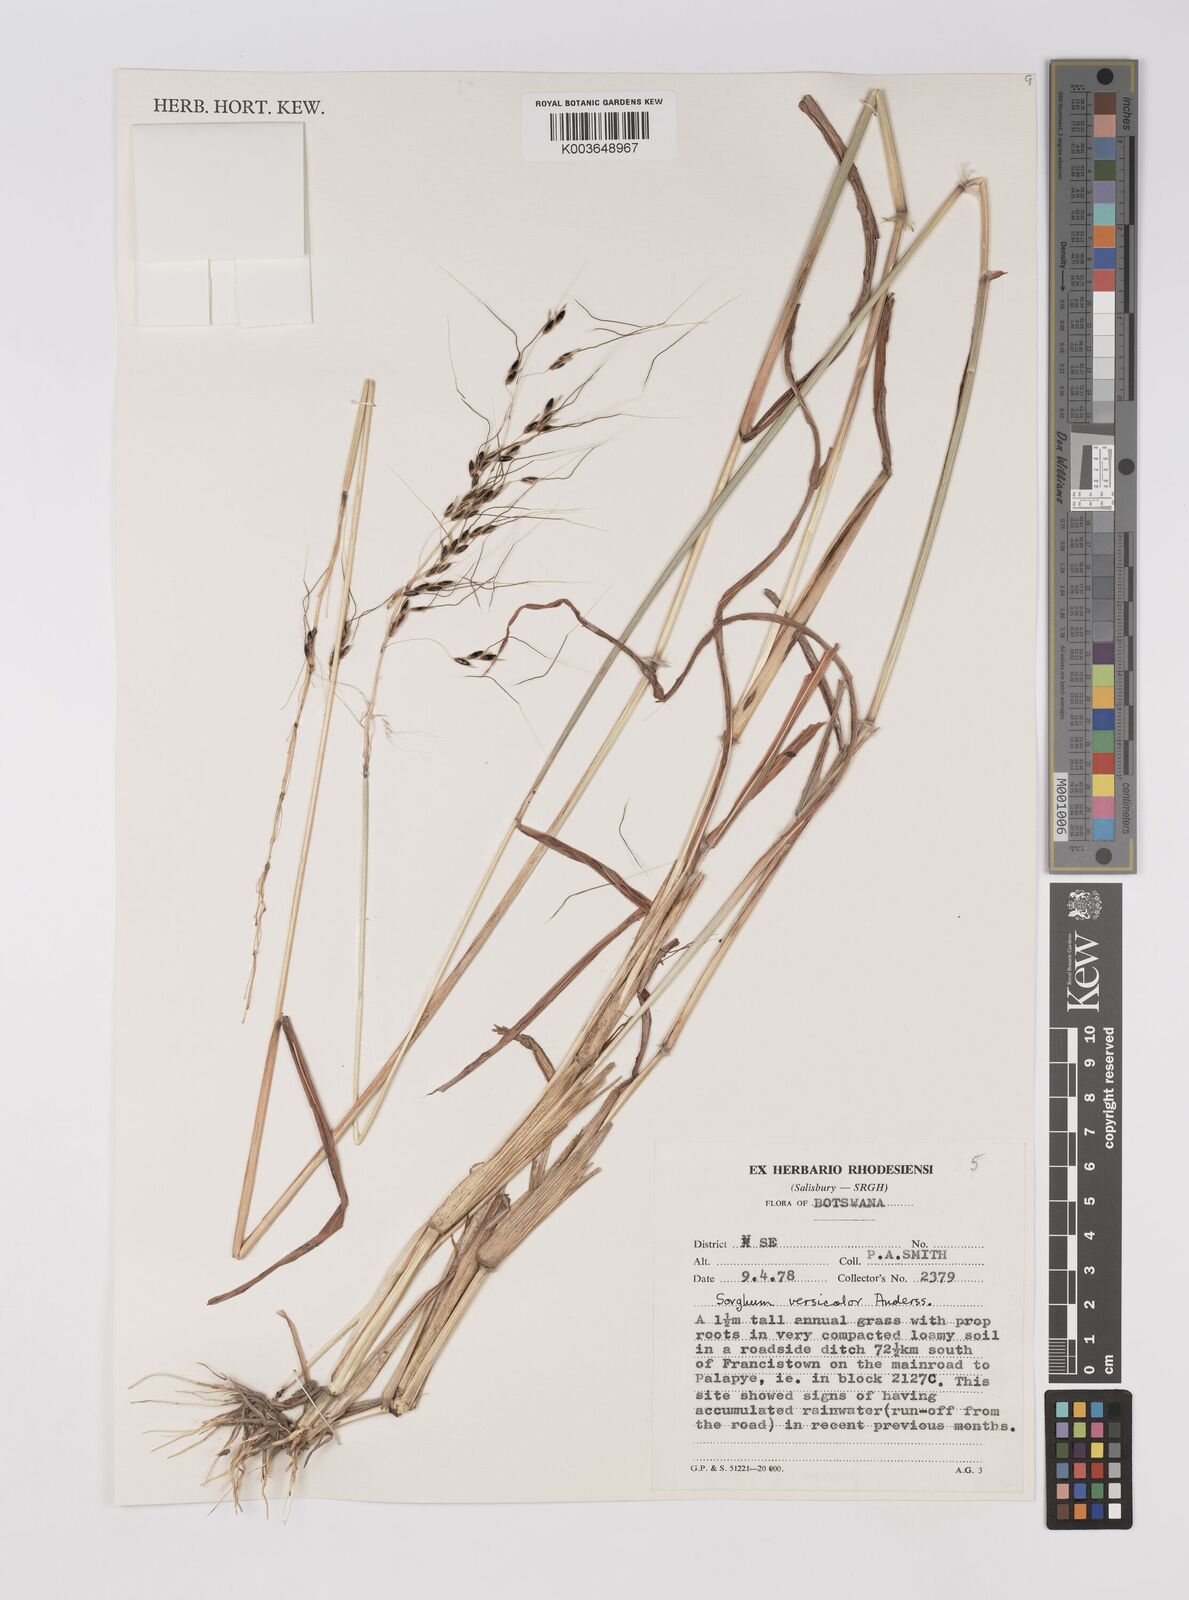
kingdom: Plantae
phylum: Tracheophyta
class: Liliopsida
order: Poales
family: Poaceae
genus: Sarga
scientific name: Sarga versicolor
